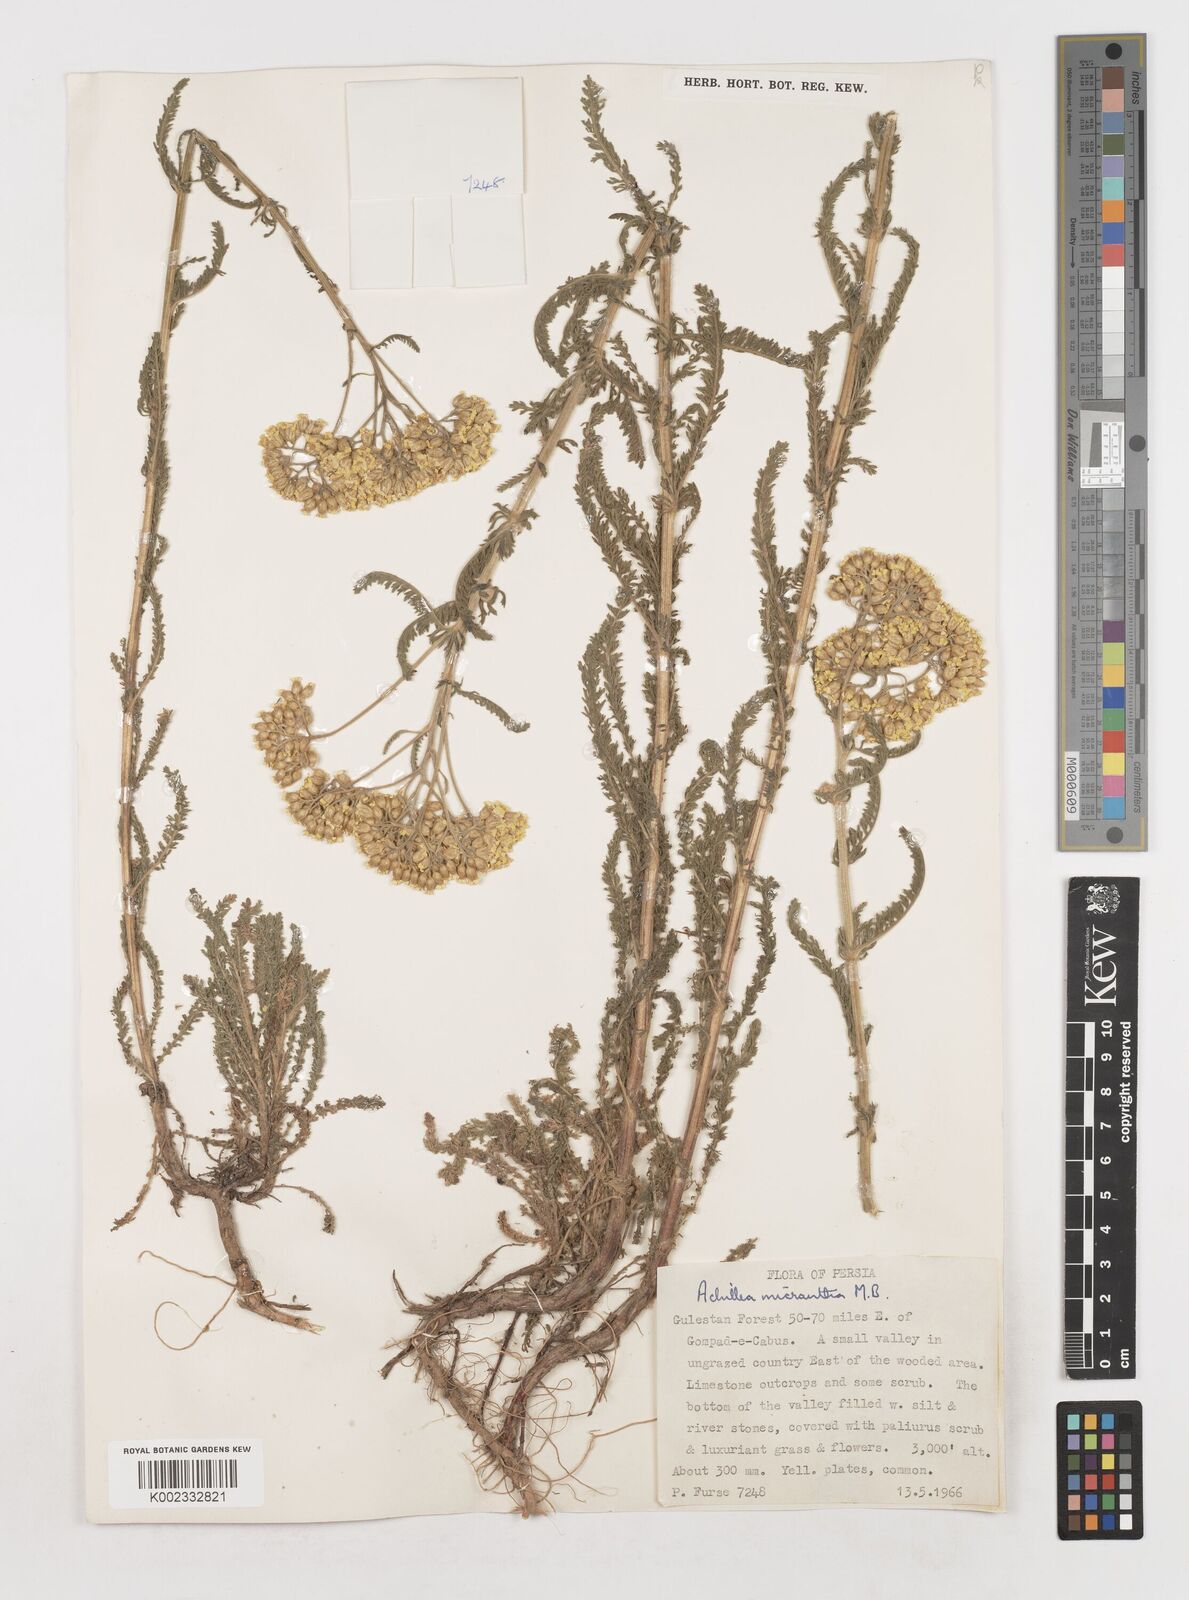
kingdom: Plantae
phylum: Tracheophyta
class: Magnoliopsida
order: Asterales
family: Asteraceae
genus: Achillea
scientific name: Achillea arabica
